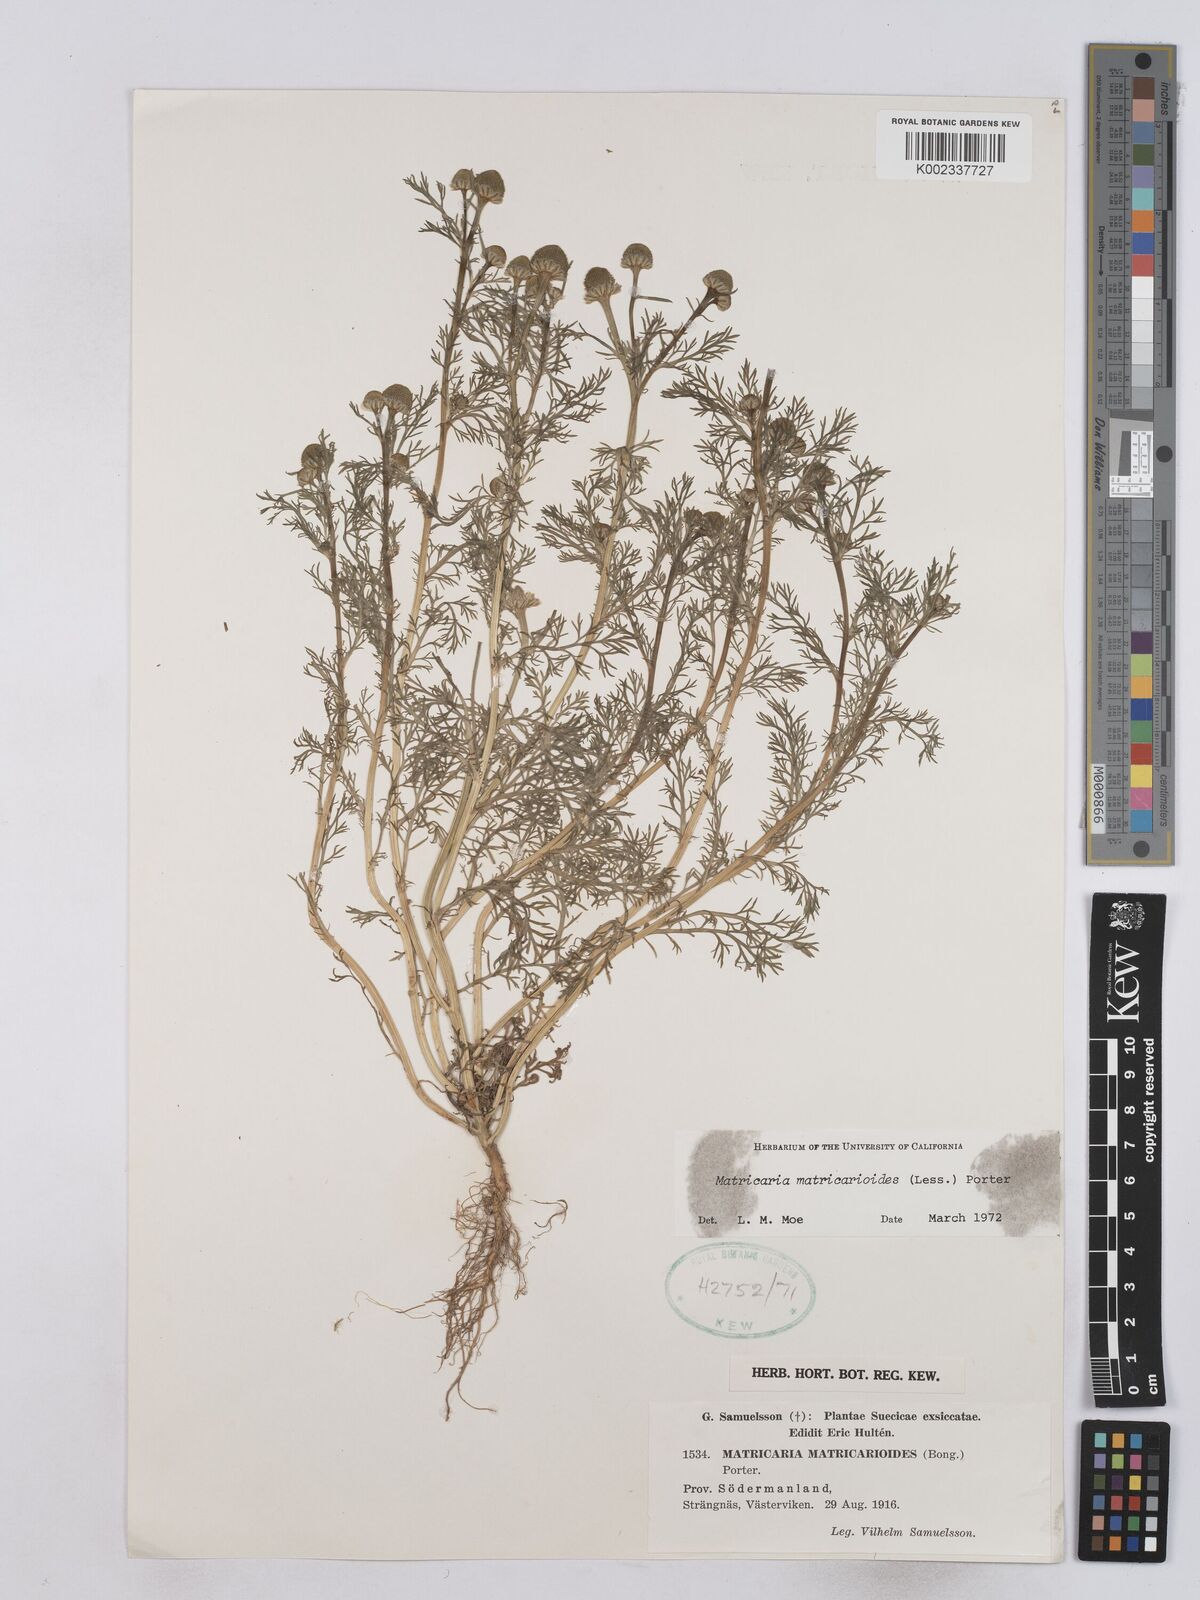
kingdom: Plantae
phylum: Tracheophyta
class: Magnoliopsida
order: Asterales
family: Asteraceae
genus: Matricaria
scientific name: Matricaria discoidea
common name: Disc mayweed
